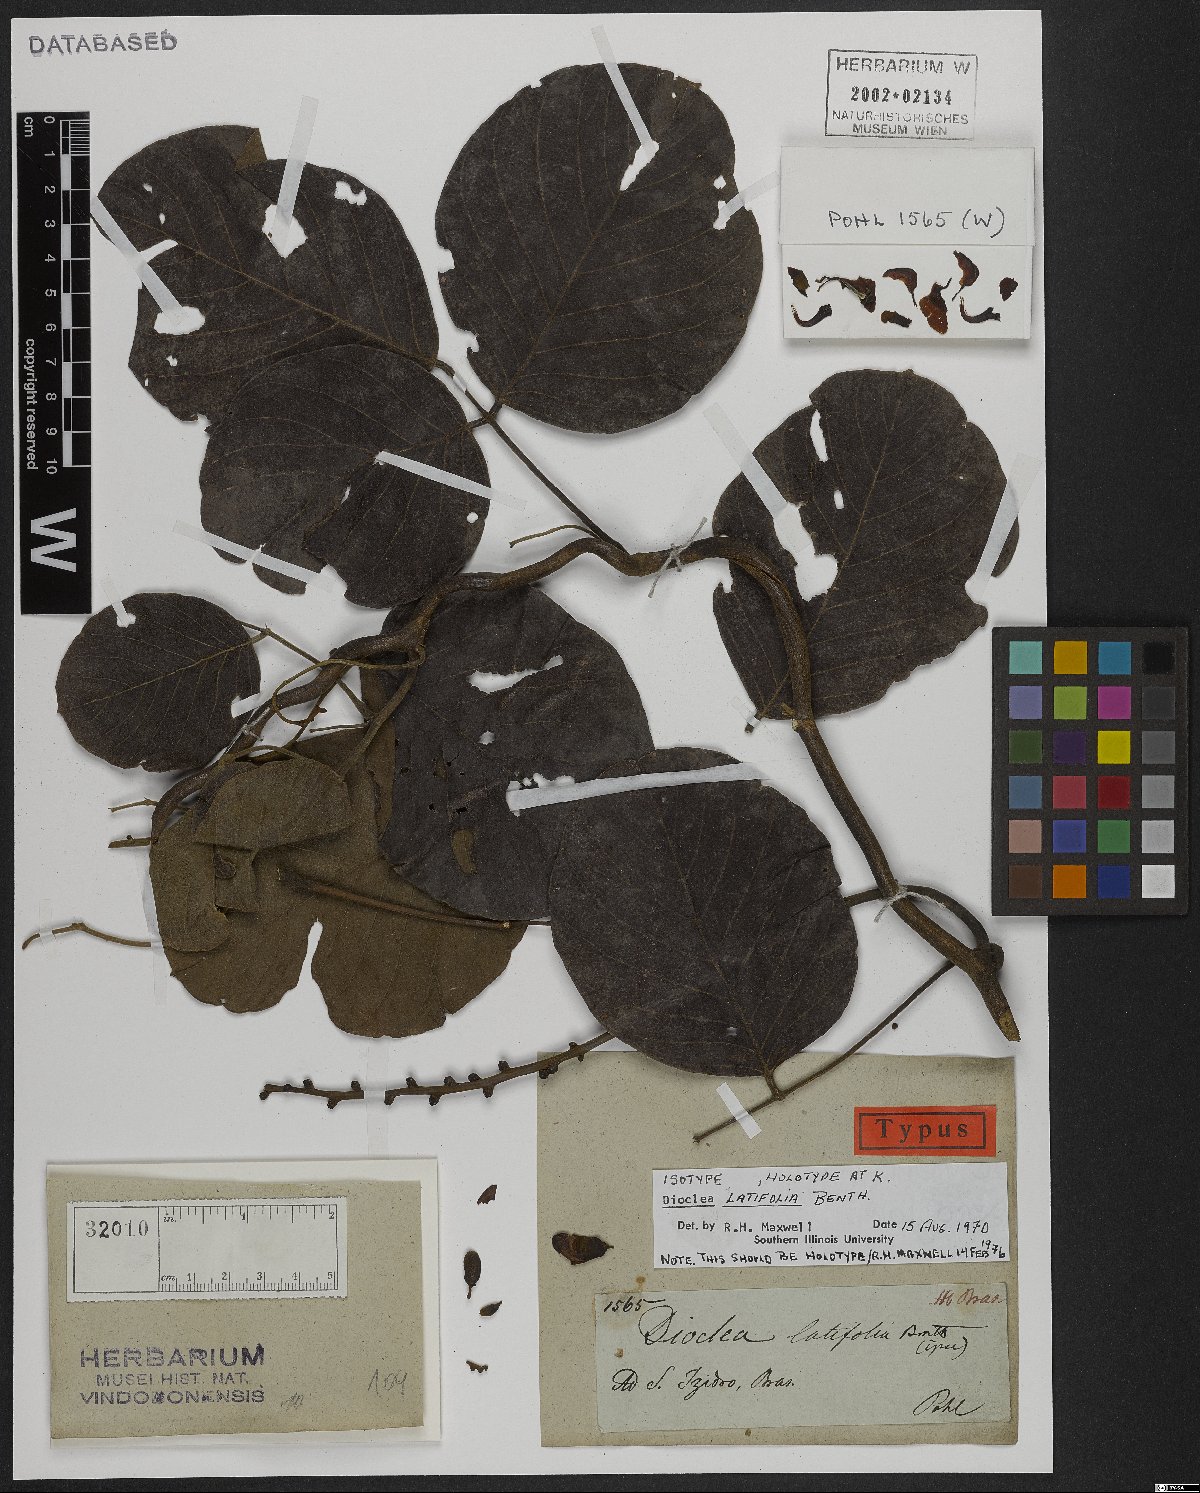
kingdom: Plantae
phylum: Tracheophyta
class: Magnoliopsida
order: Fabales
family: Fabaceae
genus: Macropsychanthus
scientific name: Macropsychanthus latifolius
